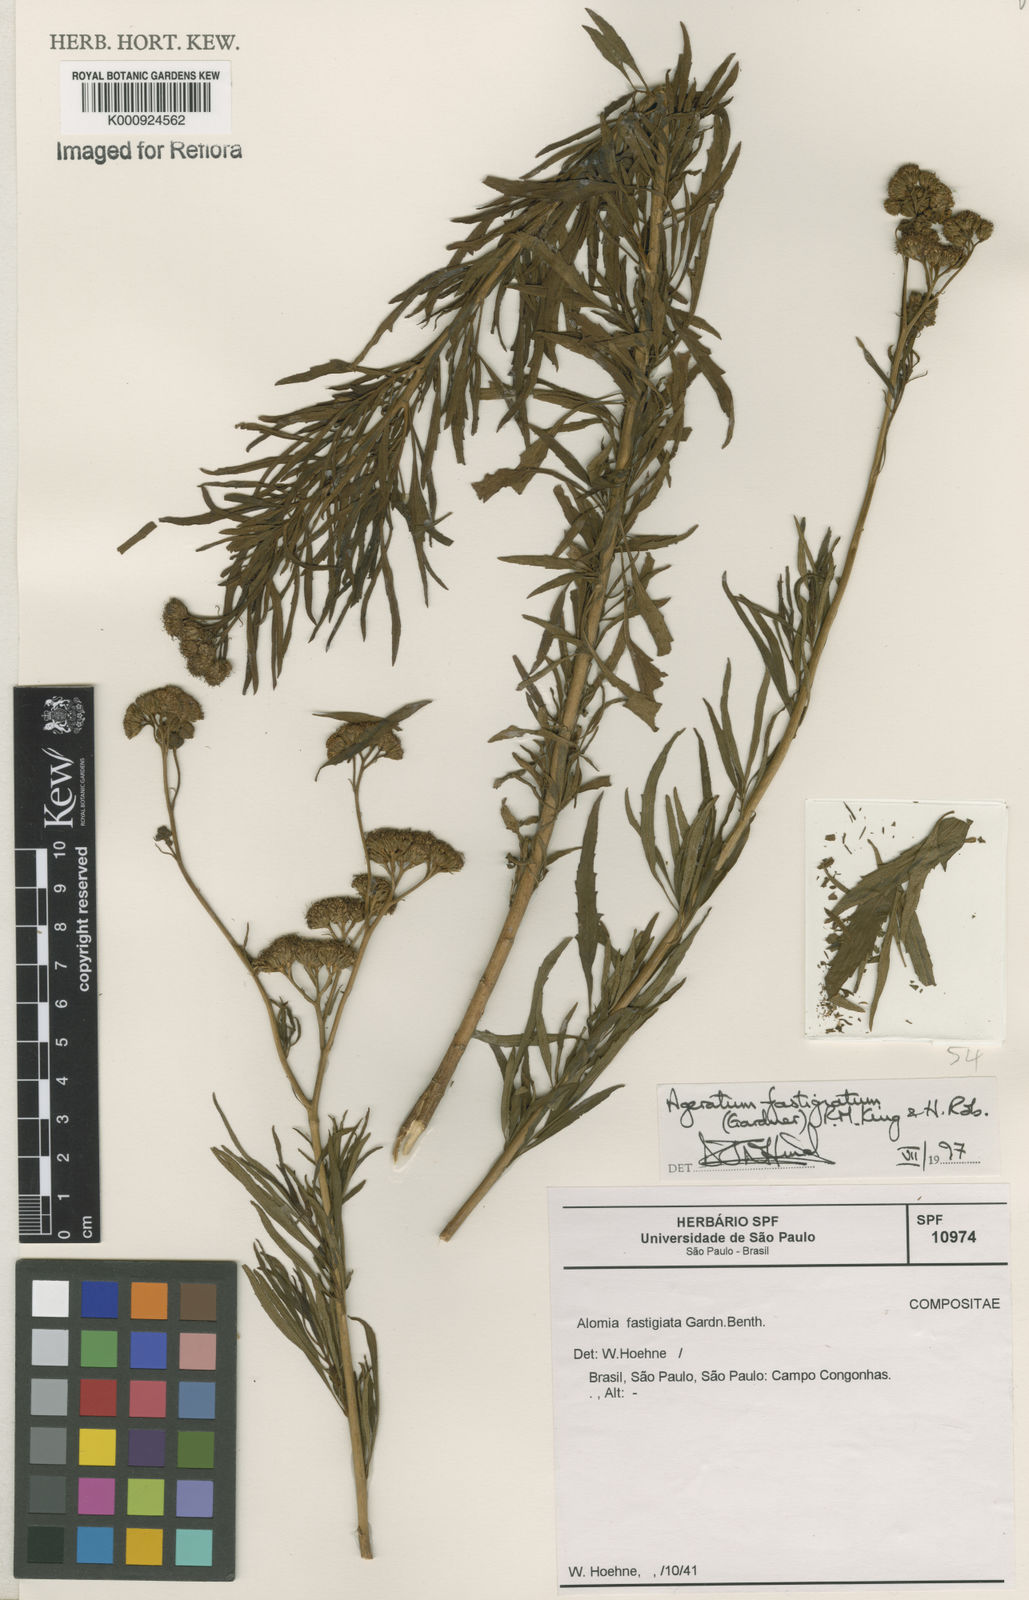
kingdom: Plantae
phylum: Tracheophyta
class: Magnoliopsida
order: Asterales
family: Asteraceae
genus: Ageratum
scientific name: Ageratum fastigiatum
